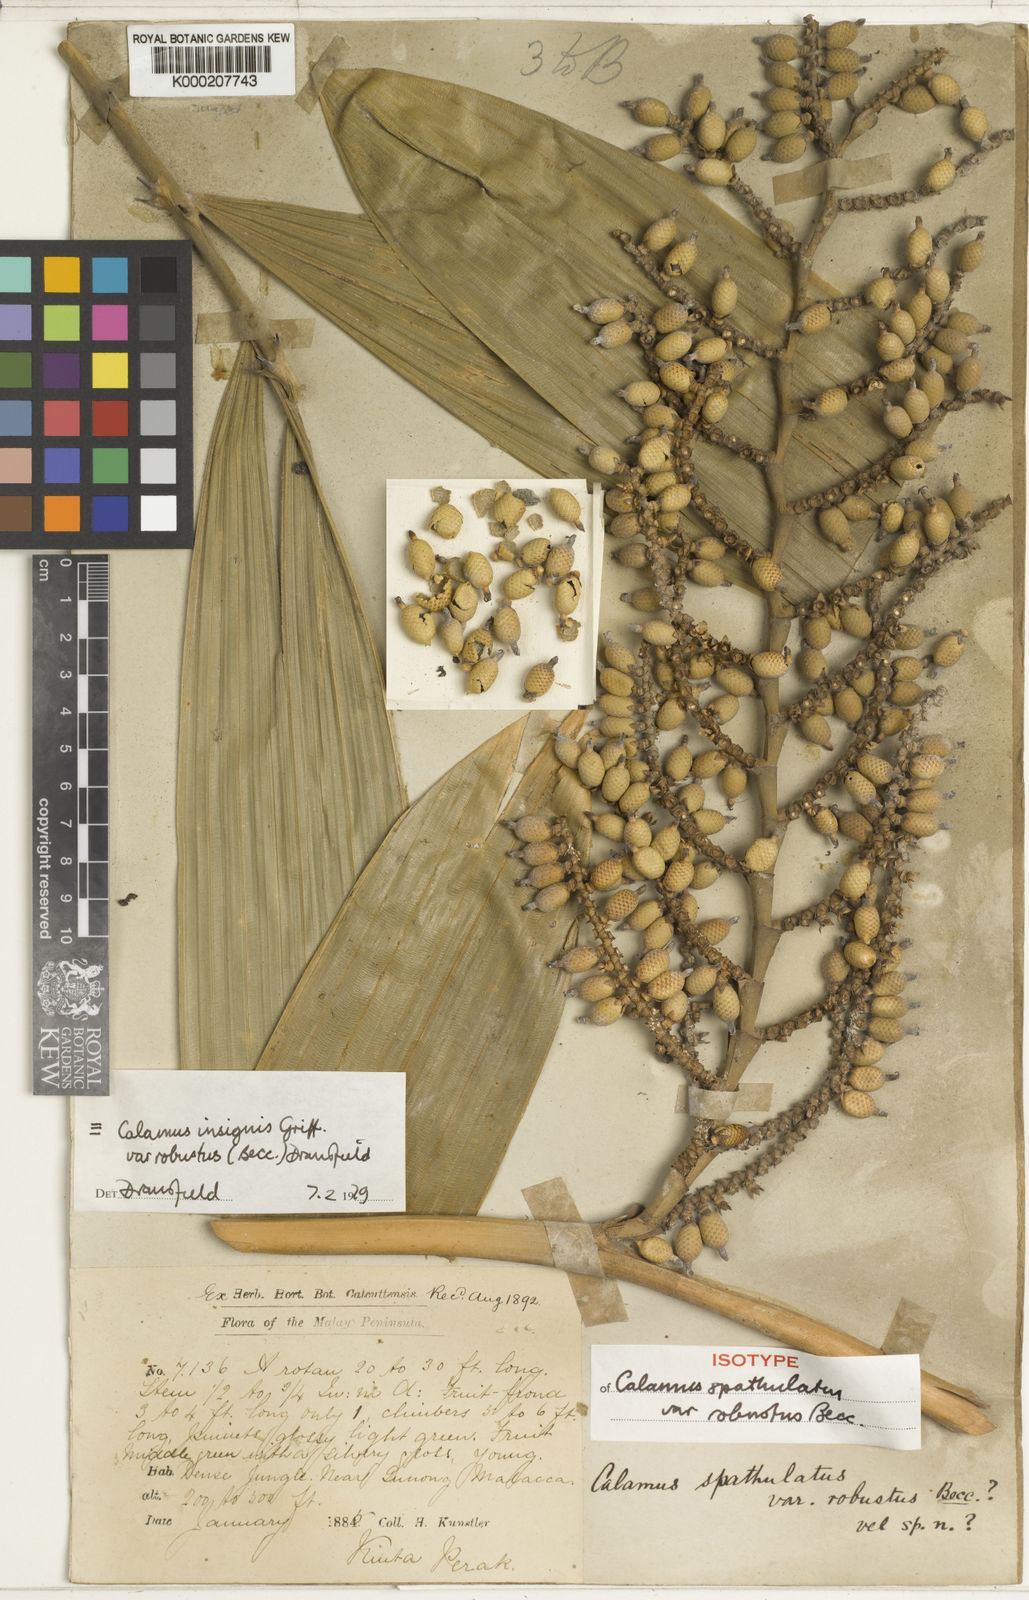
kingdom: Plantae
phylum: Tracheophyta
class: Liliopsida
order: Arecales
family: Arecaceae
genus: Calamus
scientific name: Calamus insignis
